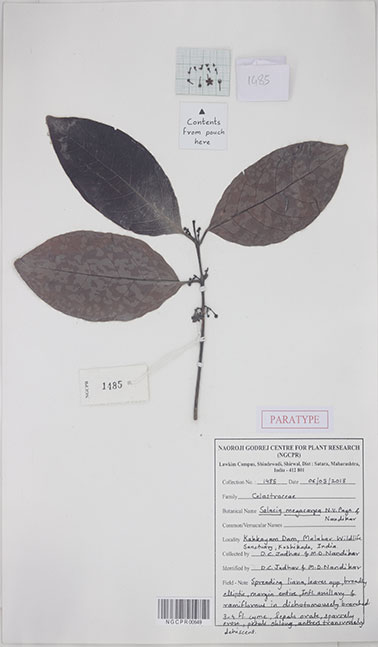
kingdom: Plantae
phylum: Tracheophyta
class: Magnoliopsida
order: Celastrales
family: Celastraceae
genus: Salacia
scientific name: Salacia megacarpa
